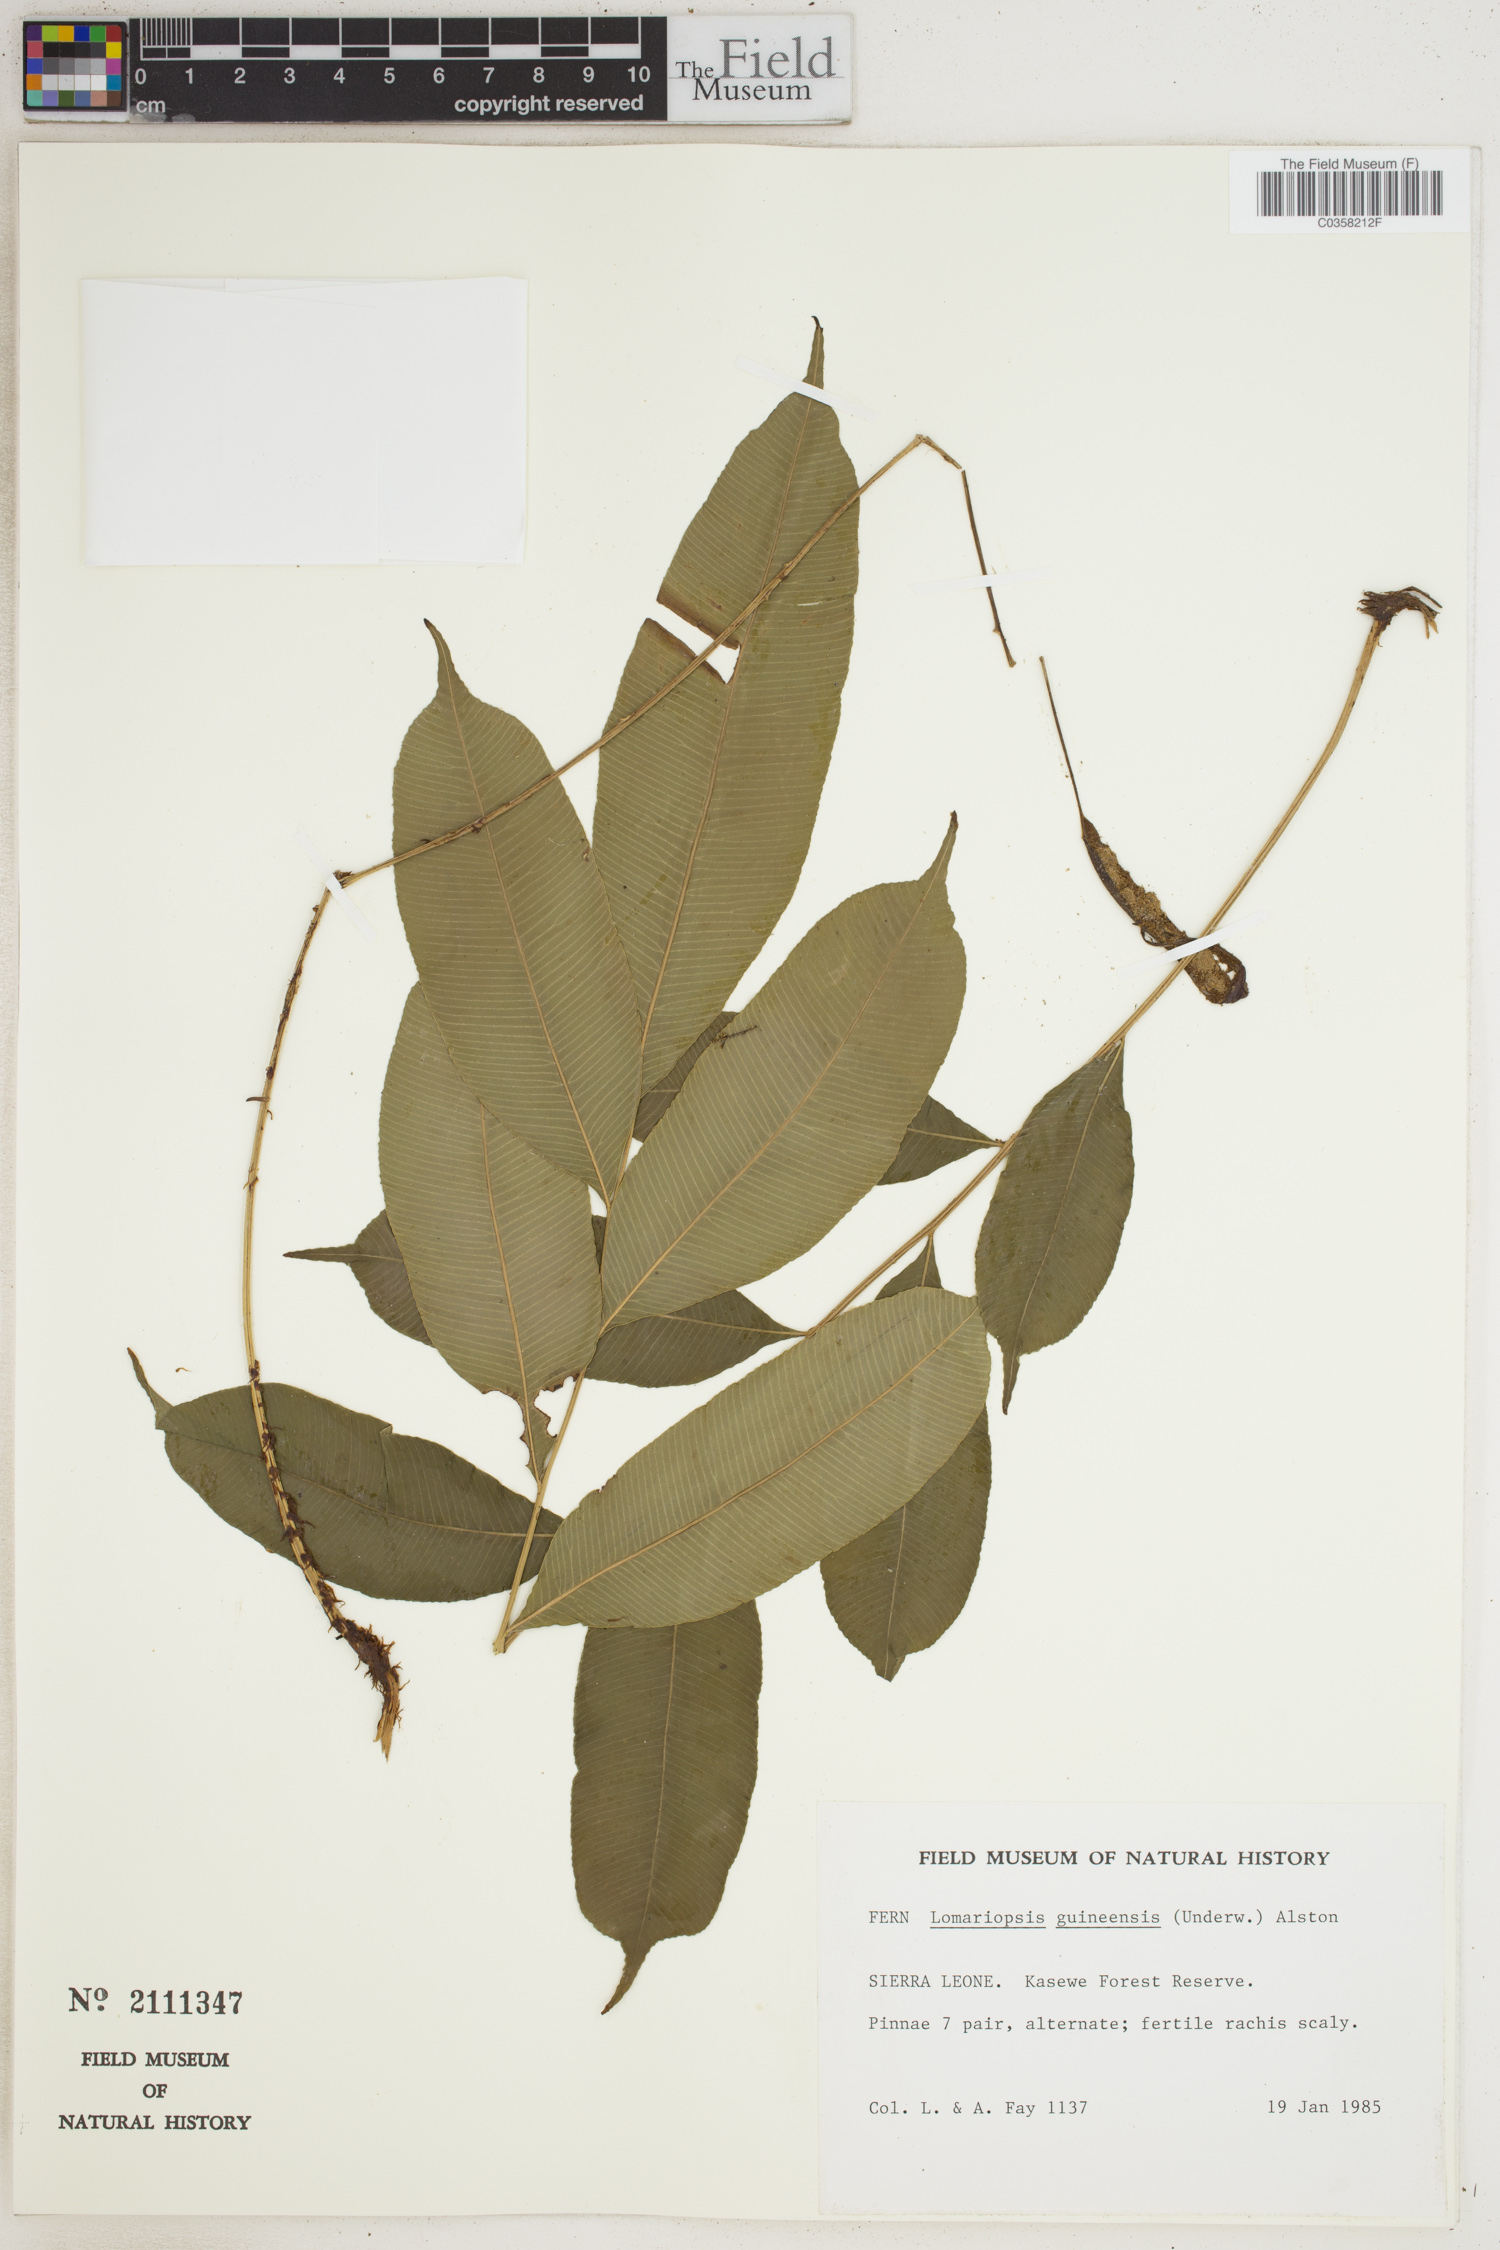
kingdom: Plantae
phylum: Tracheophyta
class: Polypodiopsida
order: Polypodiales
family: Lomariopsidaceae
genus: Lomariopsis
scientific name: Lomariopsis guineensis
